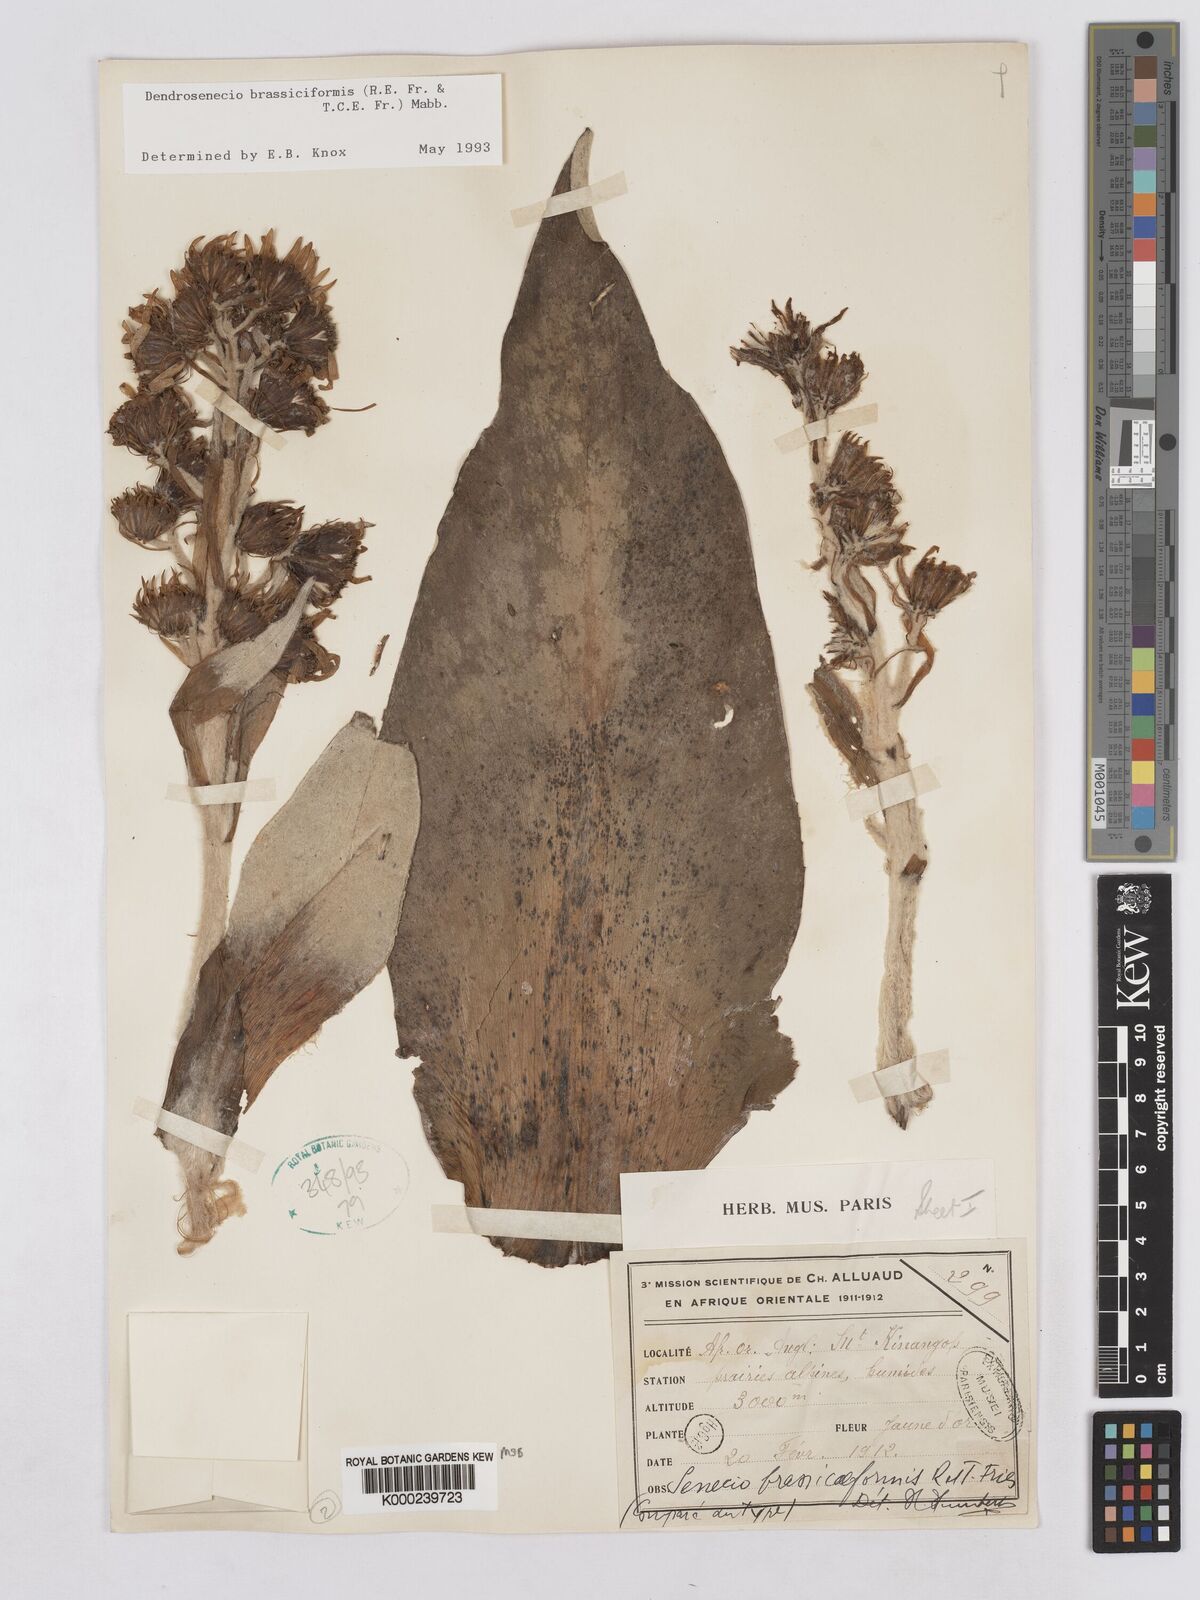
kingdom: Plantae
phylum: Tracheophyta
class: Magnoliopsida
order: Asterales
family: Asteraceae
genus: Dendrosenecio
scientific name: Dendrosenecio brassiciformis
